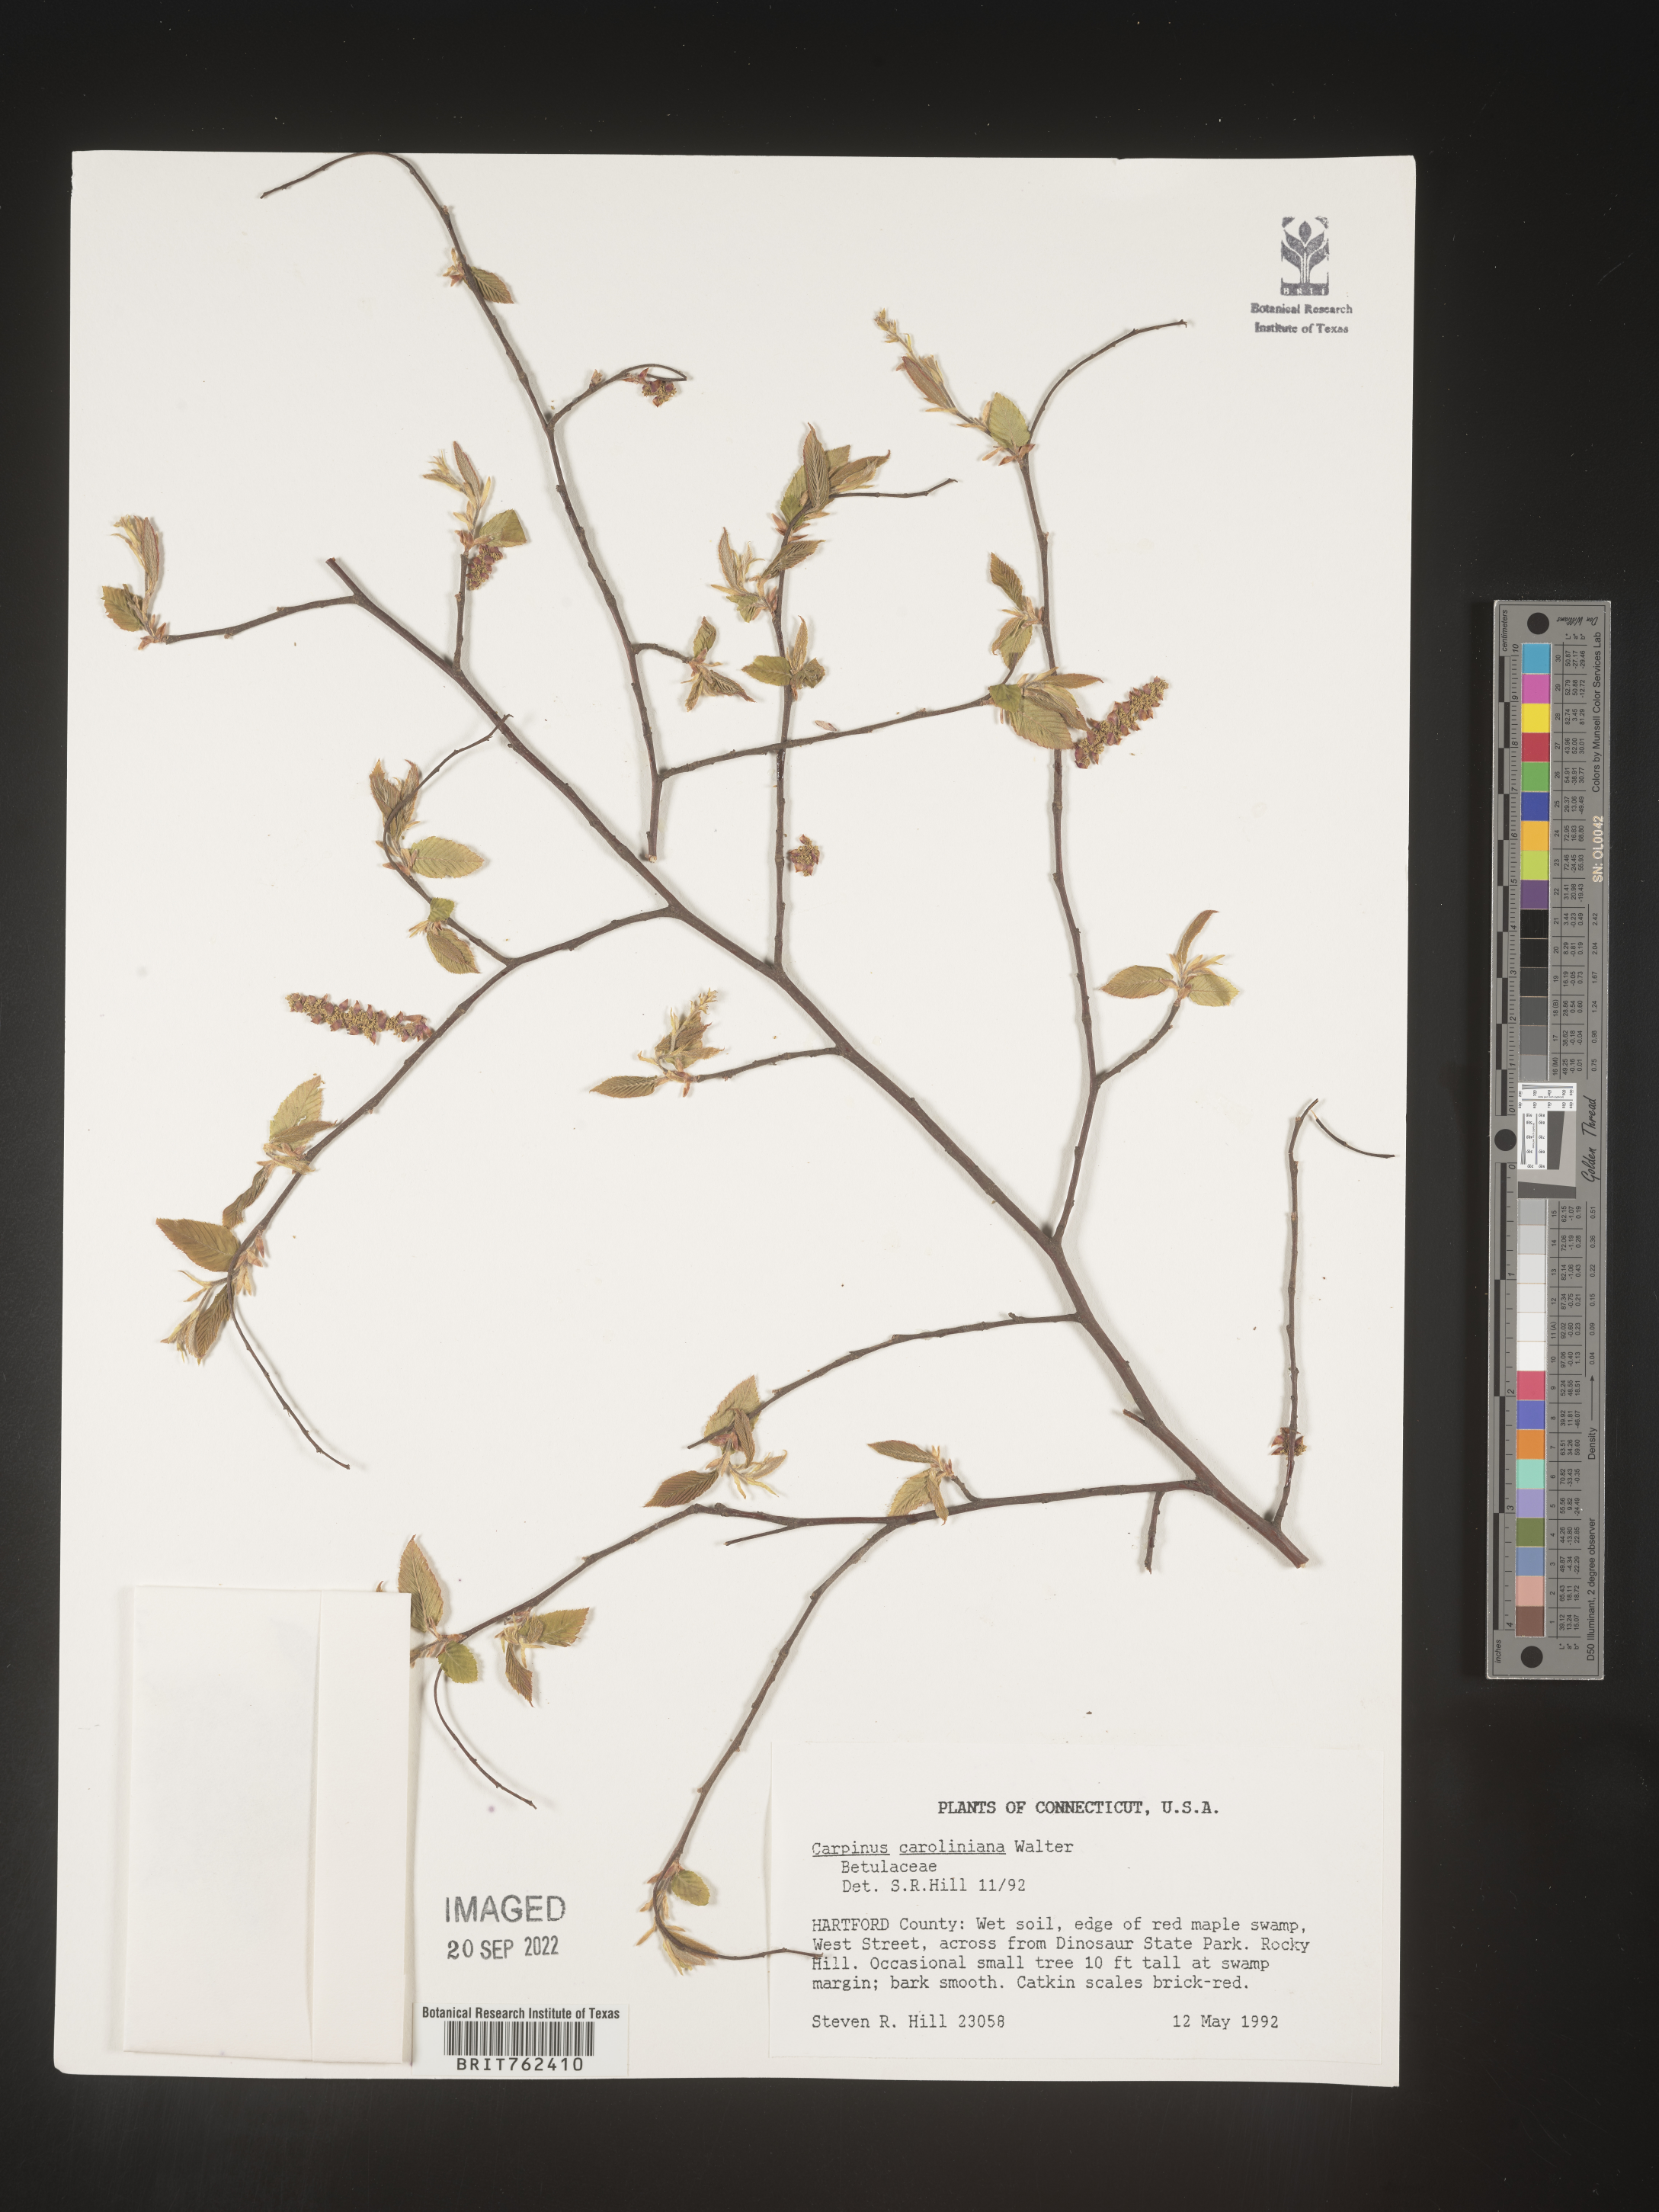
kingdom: Plantae
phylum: Tracheophyta
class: Magnoliopsida
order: Fagales
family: Betulaceae
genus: Carpinus
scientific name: Carpinus caroliniana
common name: American hornbeam
